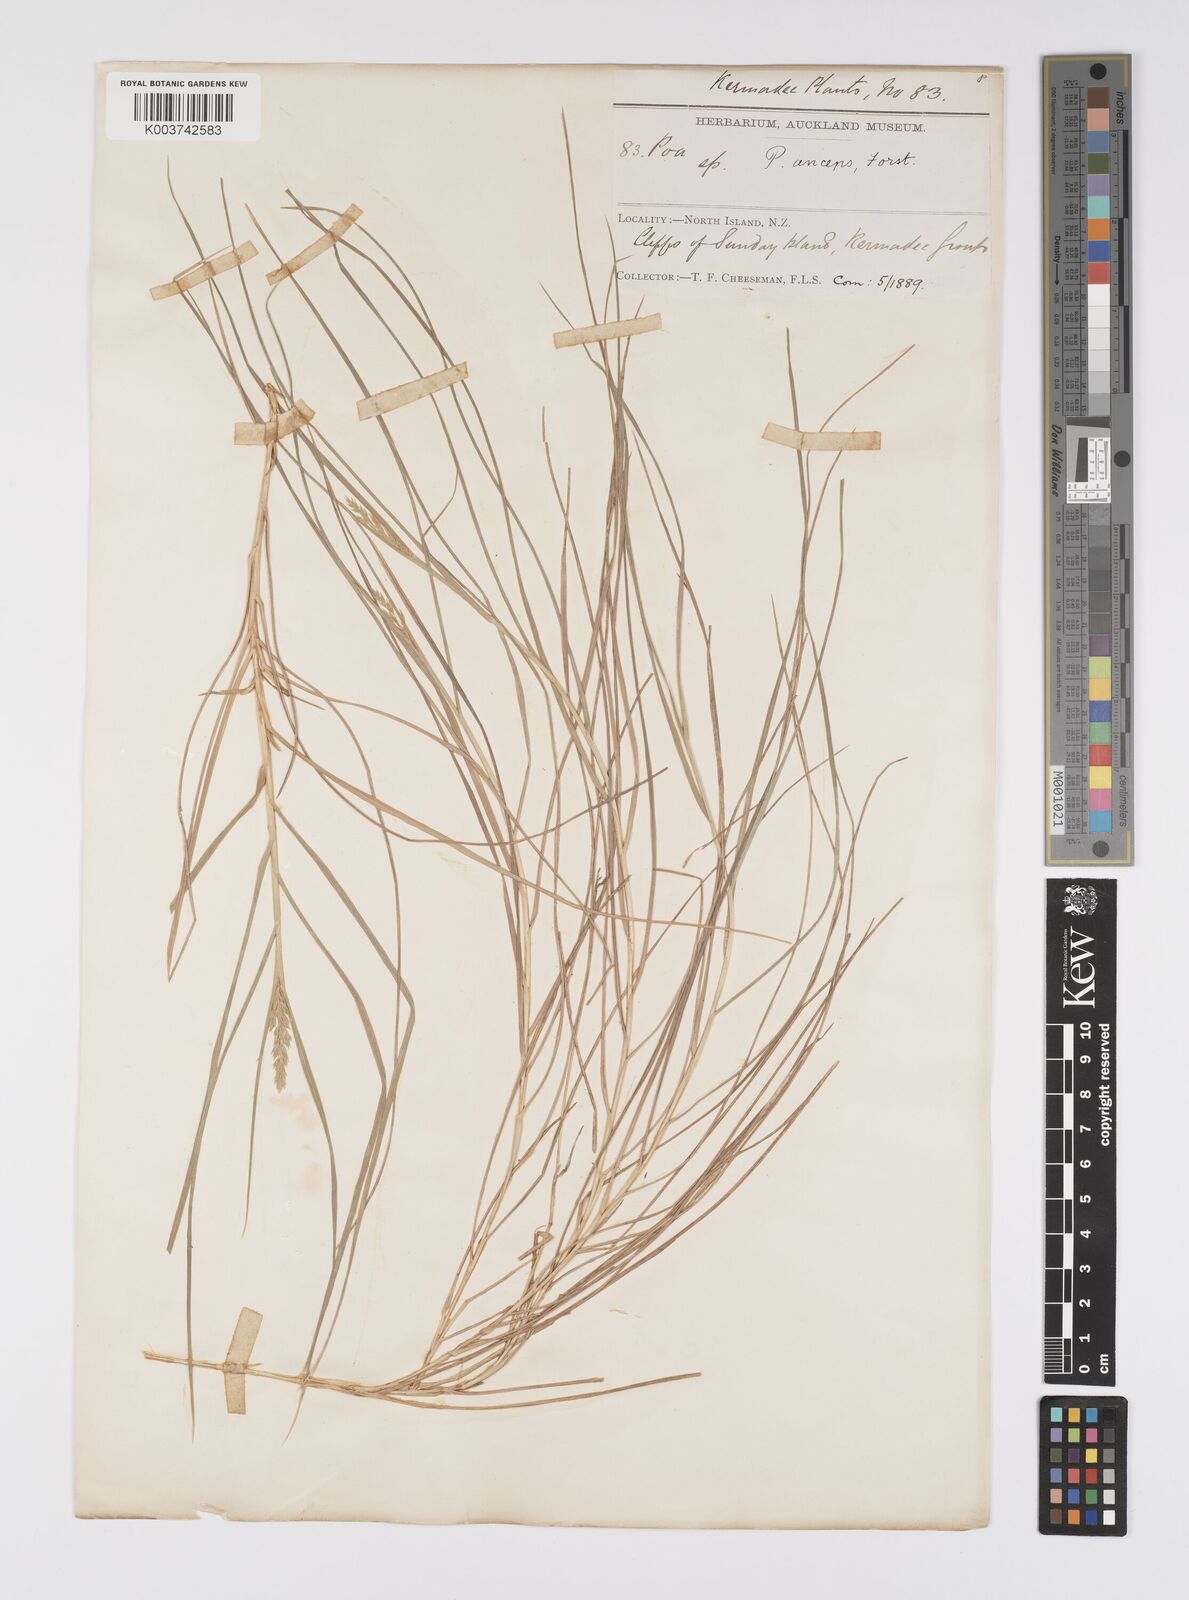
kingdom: Plantae
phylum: Tracheophyta
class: Liliopsida
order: Poales
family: Poaceae
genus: Poa
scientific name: Poa anceps
